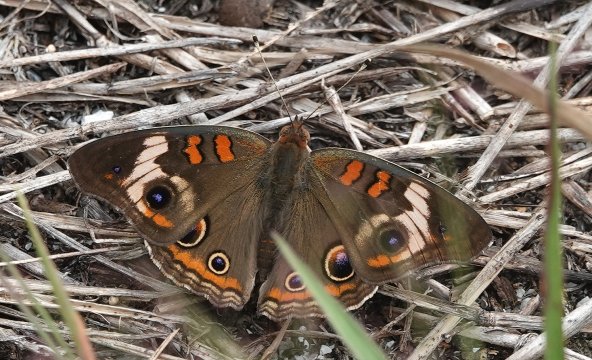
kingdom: Animalia
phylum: Arthropoda
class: Insecta
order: Lepidoptera
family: Nymphalidae
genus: Junonia
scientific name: Junonia coenia
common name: Common Buckeye
